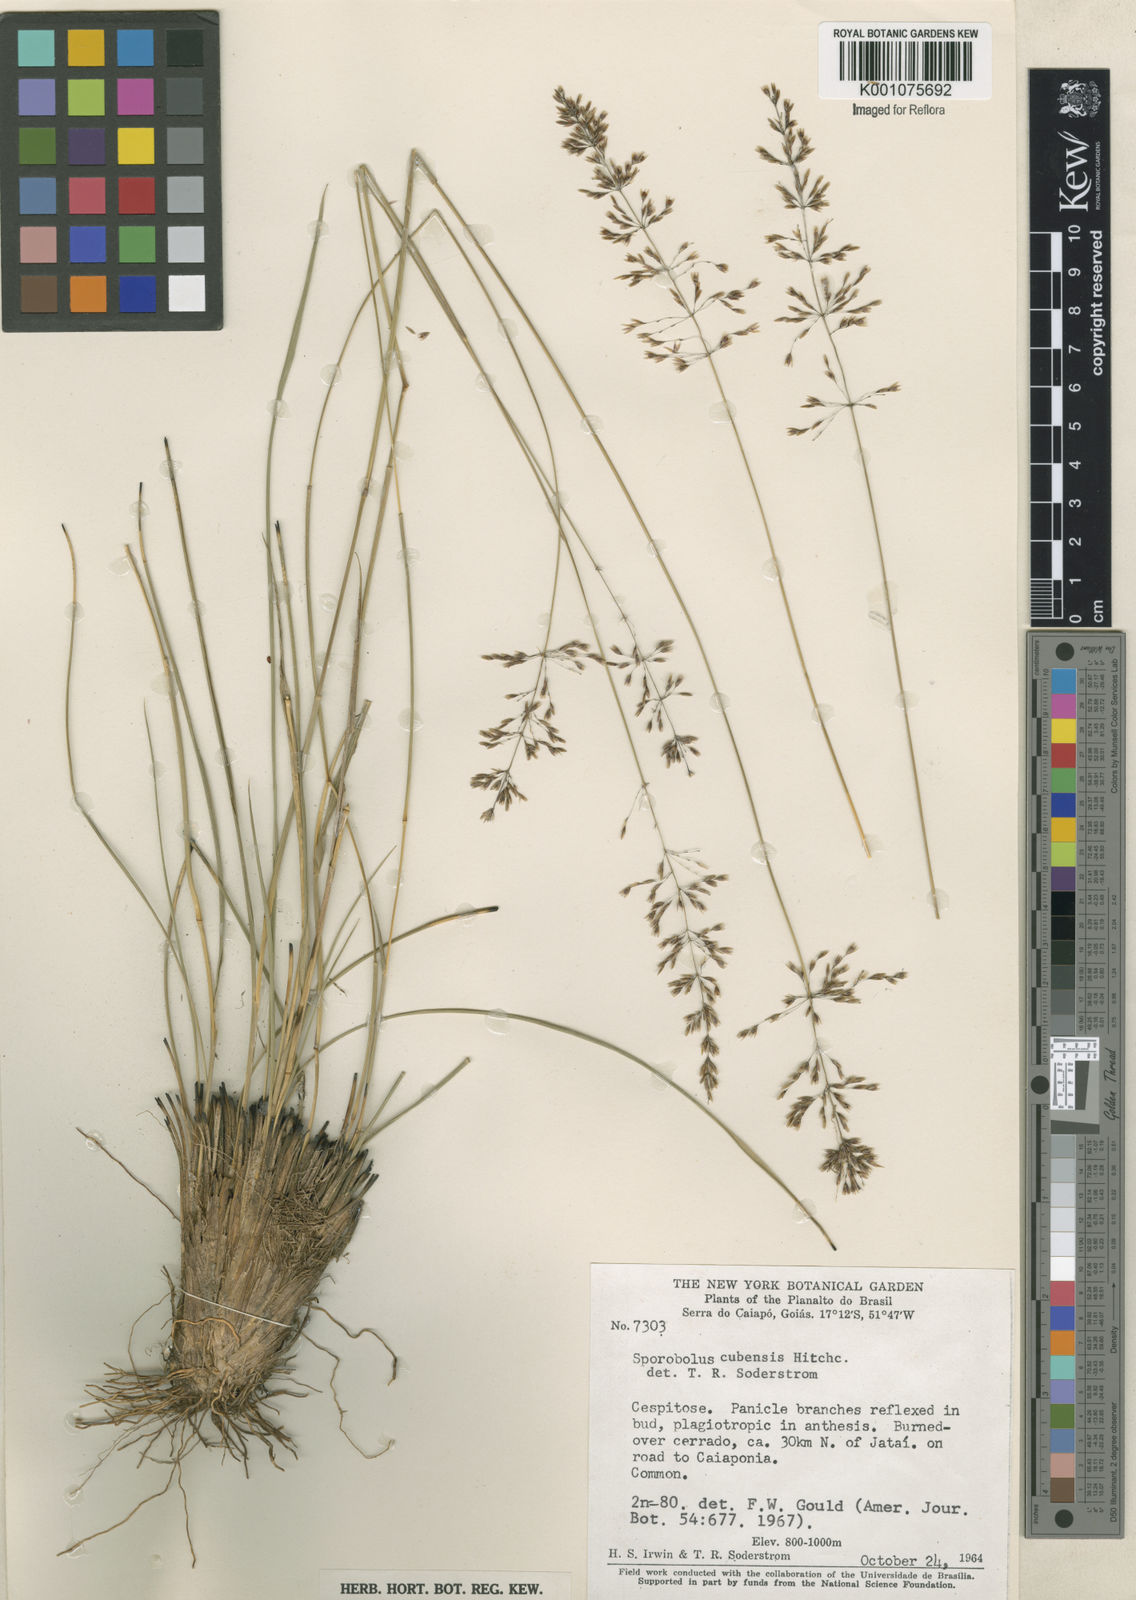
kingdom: Plantae
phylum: Tracheophyta
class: Liliopsida
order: Poales
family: Poaceae
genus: Sporobolus
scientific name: Sporobolus cubensis
